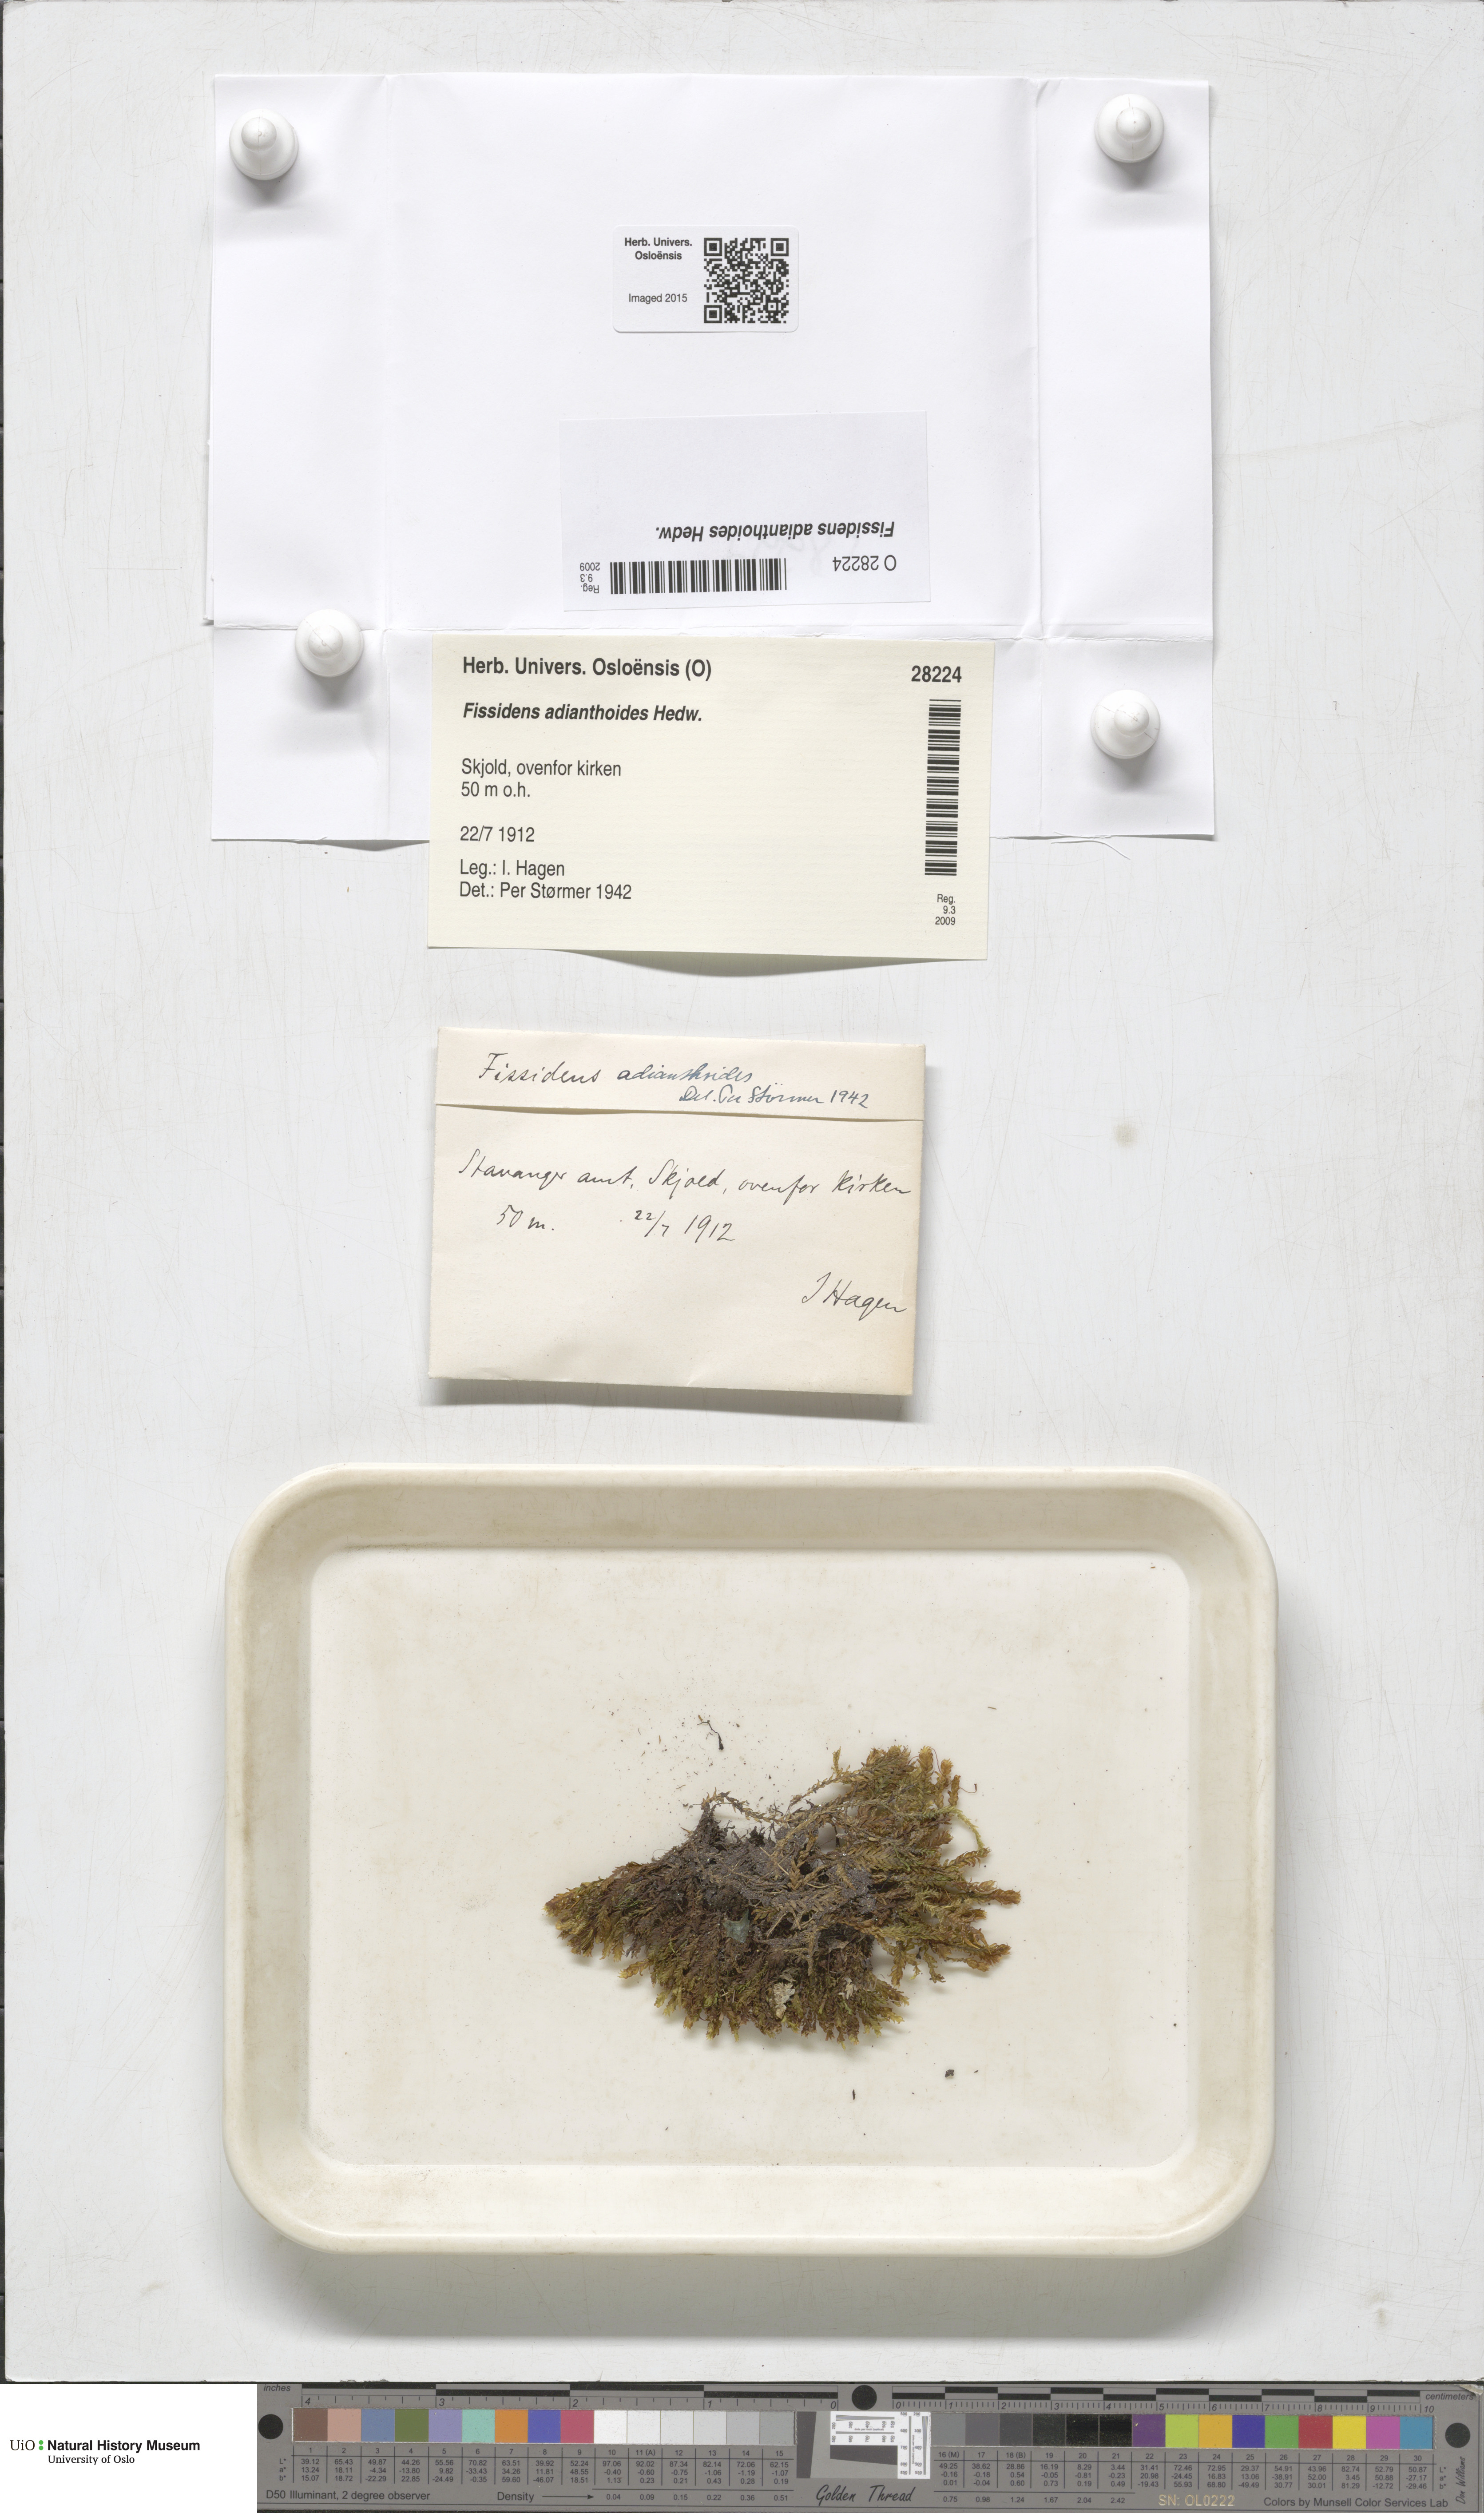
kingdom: Plantae
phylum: Bryophyta
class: Bryopsida
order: Dicranales
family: Fissidentaceae
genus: Fissidens
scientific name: Fissidens adianthoides
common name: Maidenhair pocket moss
